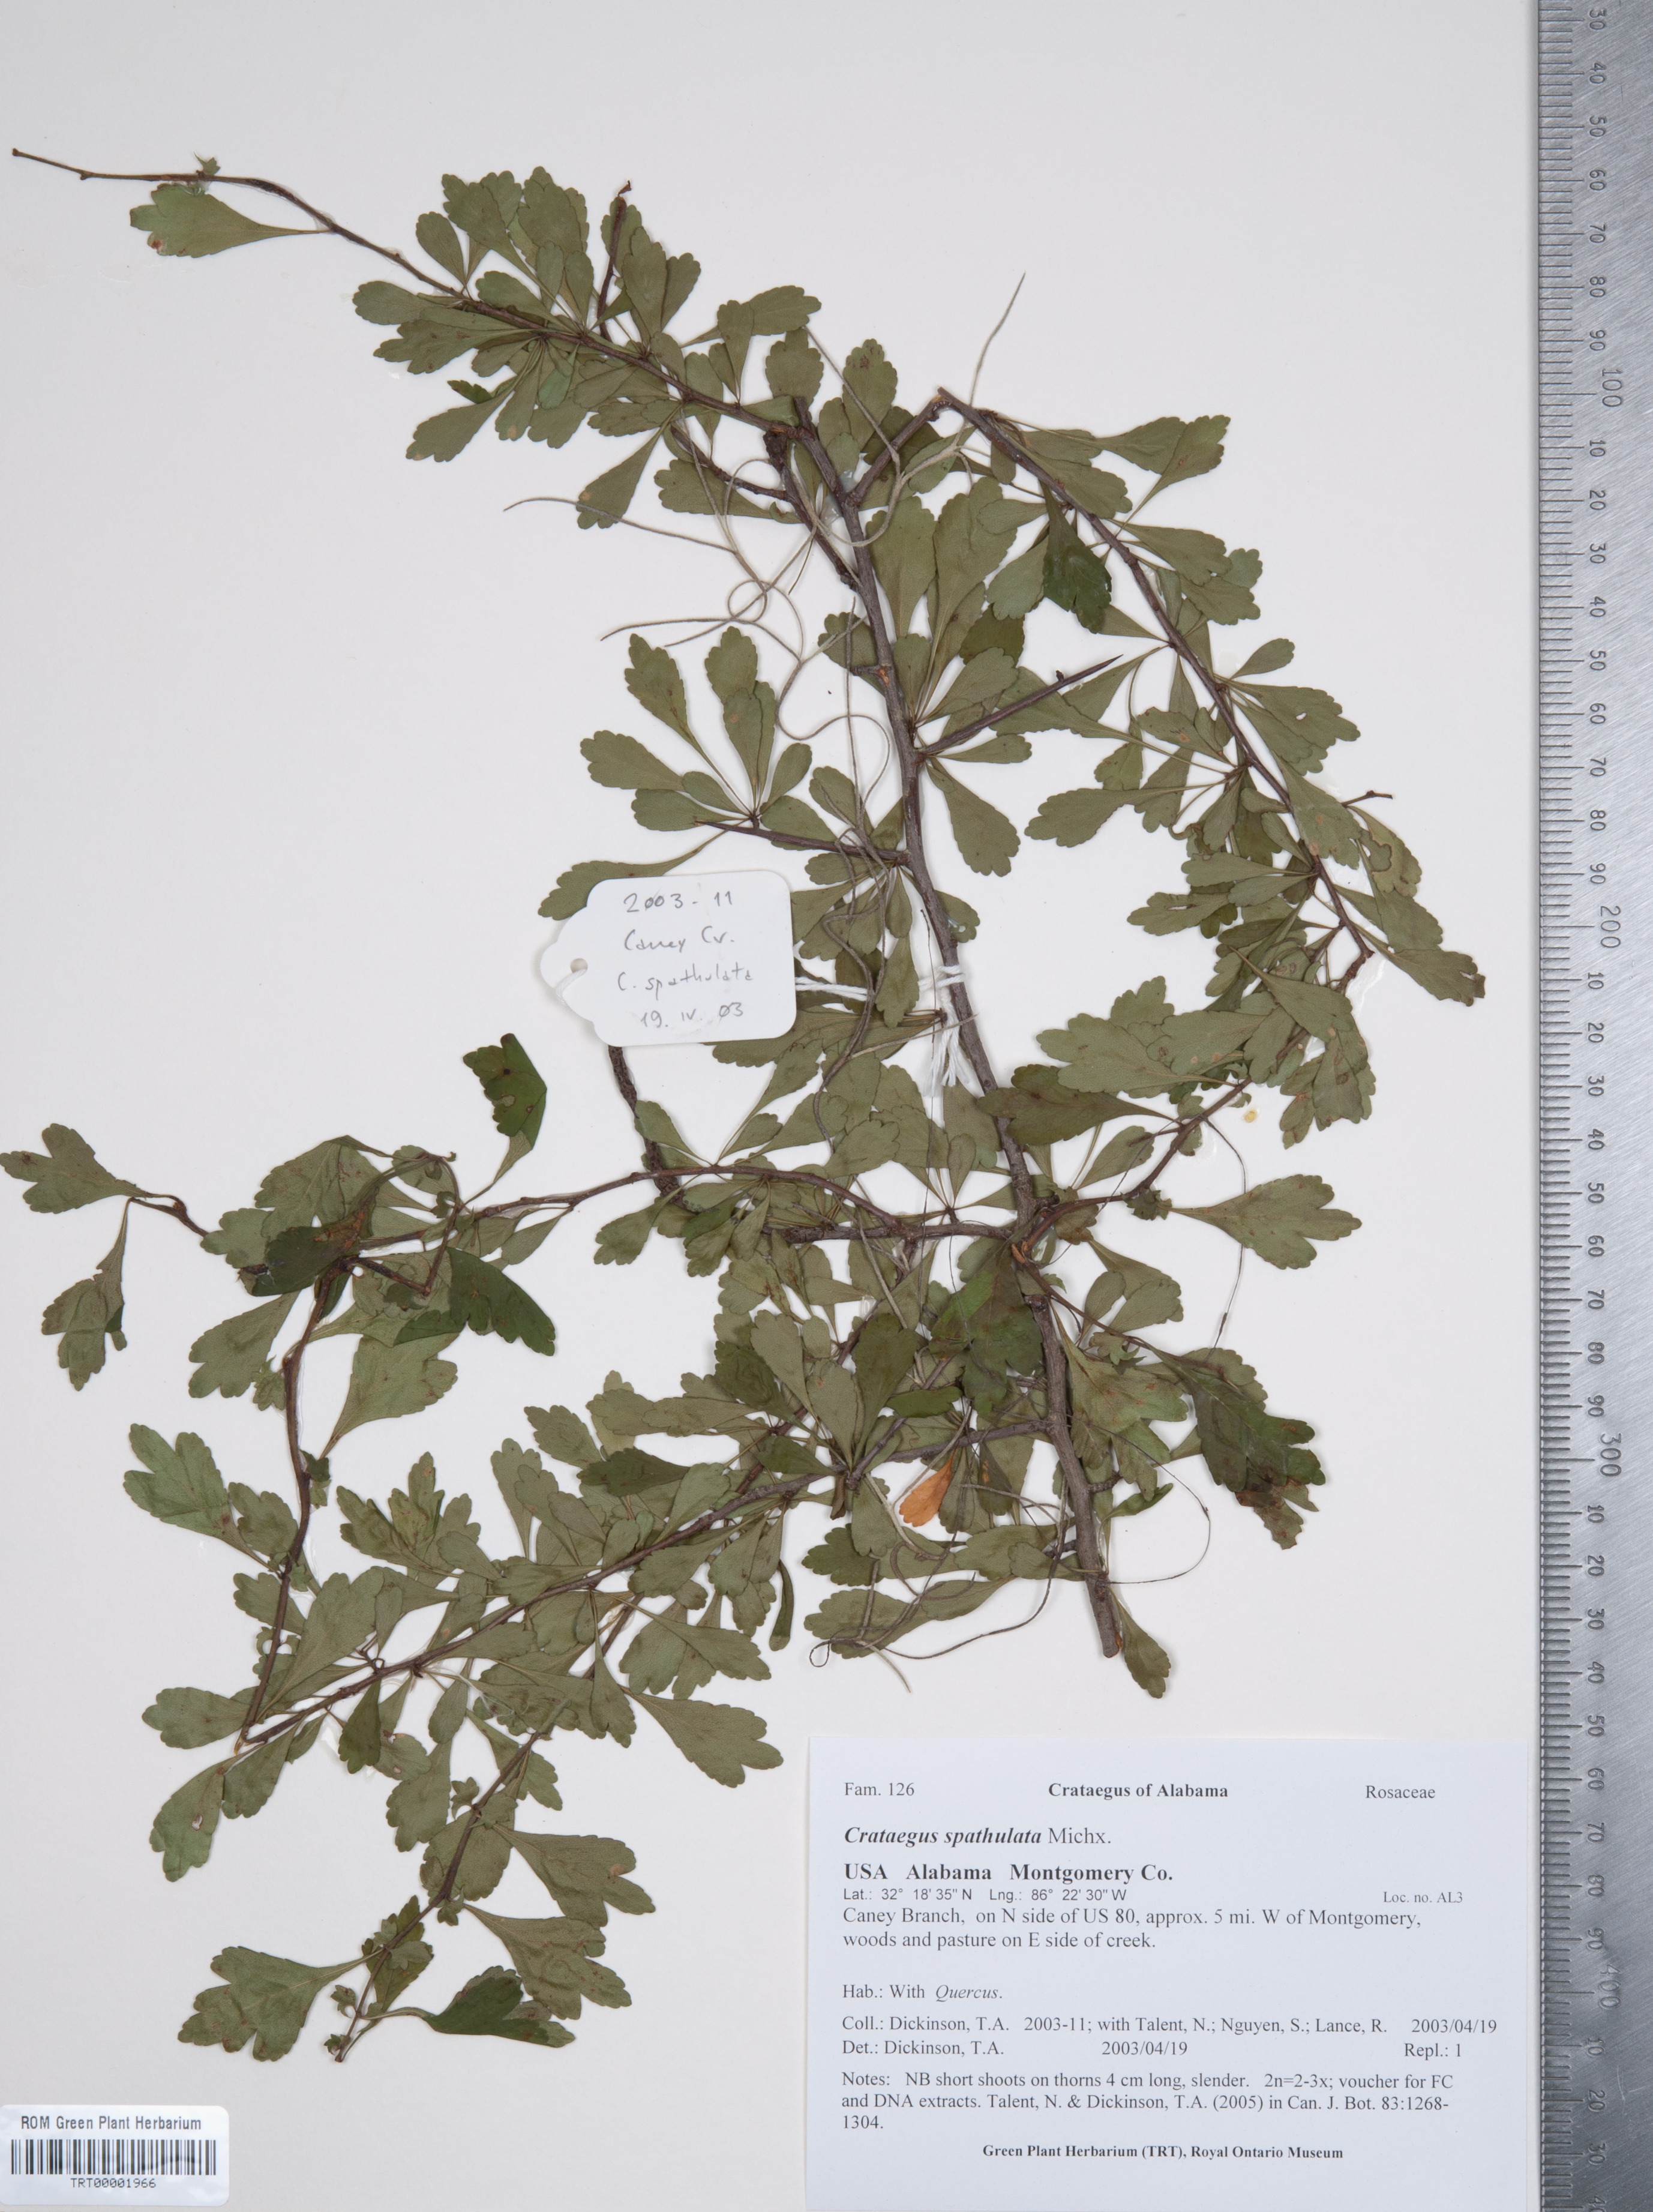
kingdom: Plantae
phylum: Tracheophyta
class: Magnoliopsida
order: Rosales
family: Rosaceae
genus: Crataegus
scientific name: Crataegus spathulata
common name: Littlehip hawthorn
